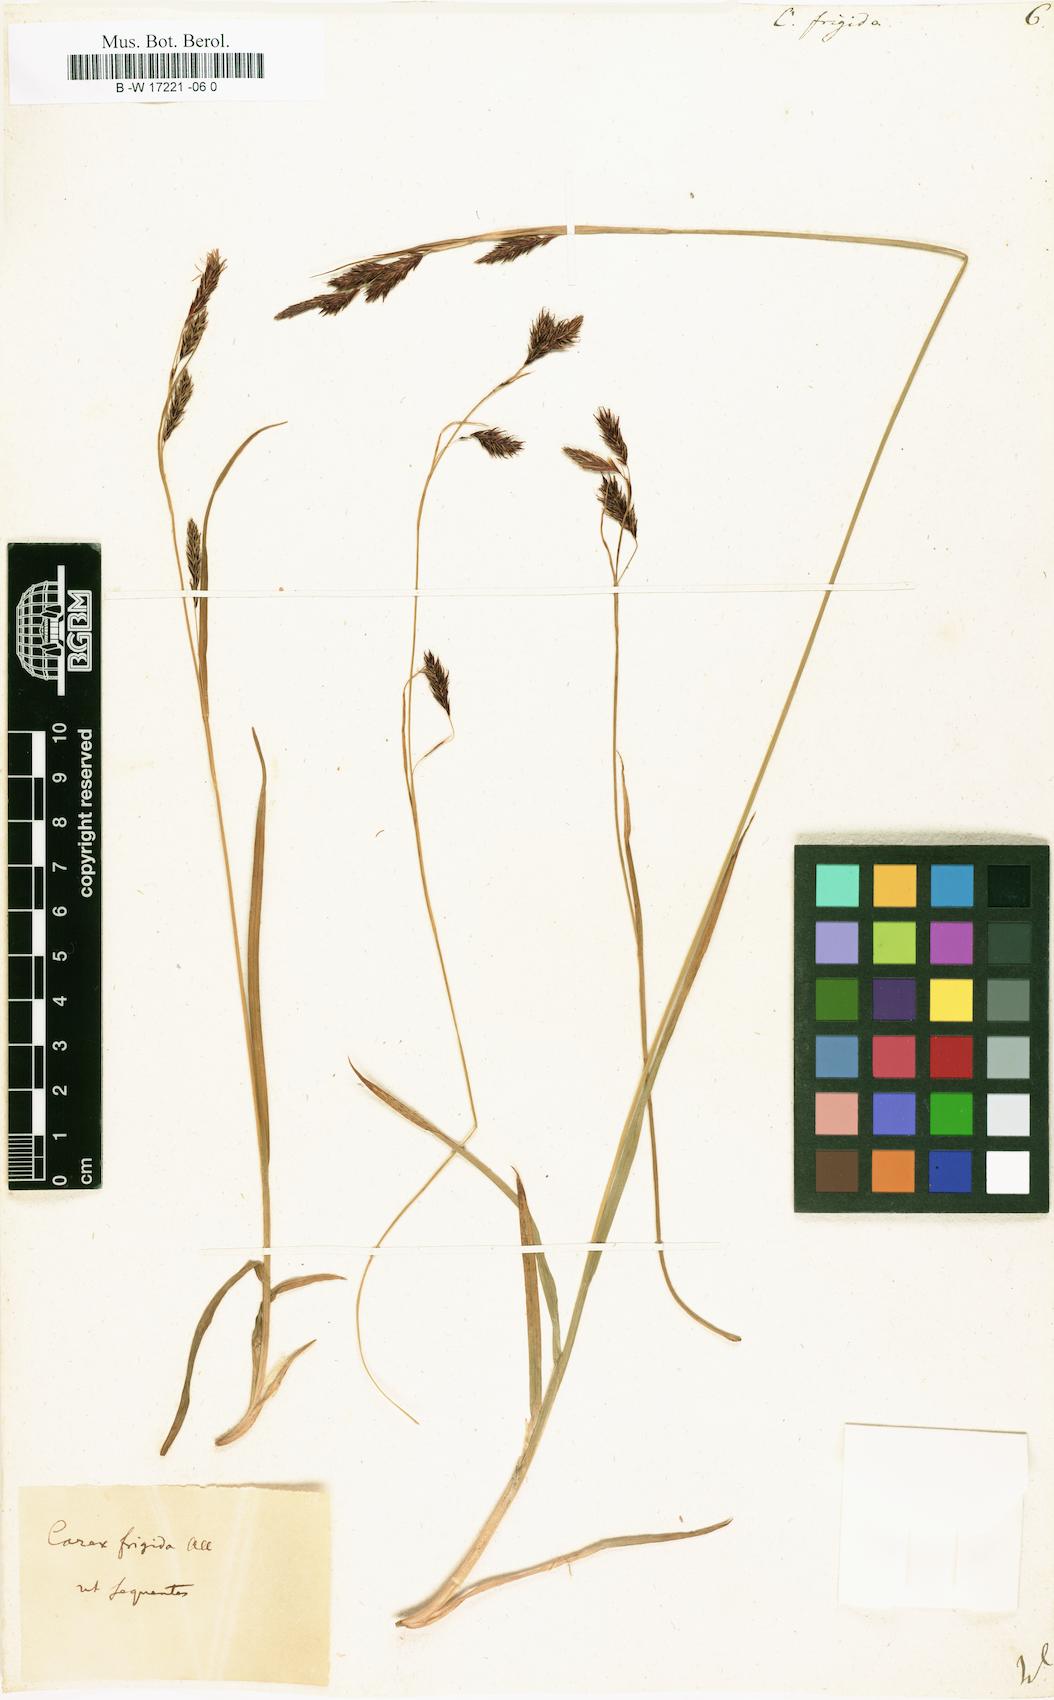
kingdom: Plantae
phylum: Tracheophyta
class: Liliopsida
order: Poales
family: Cyperaceae
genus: Carex
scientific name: Carex frigida
